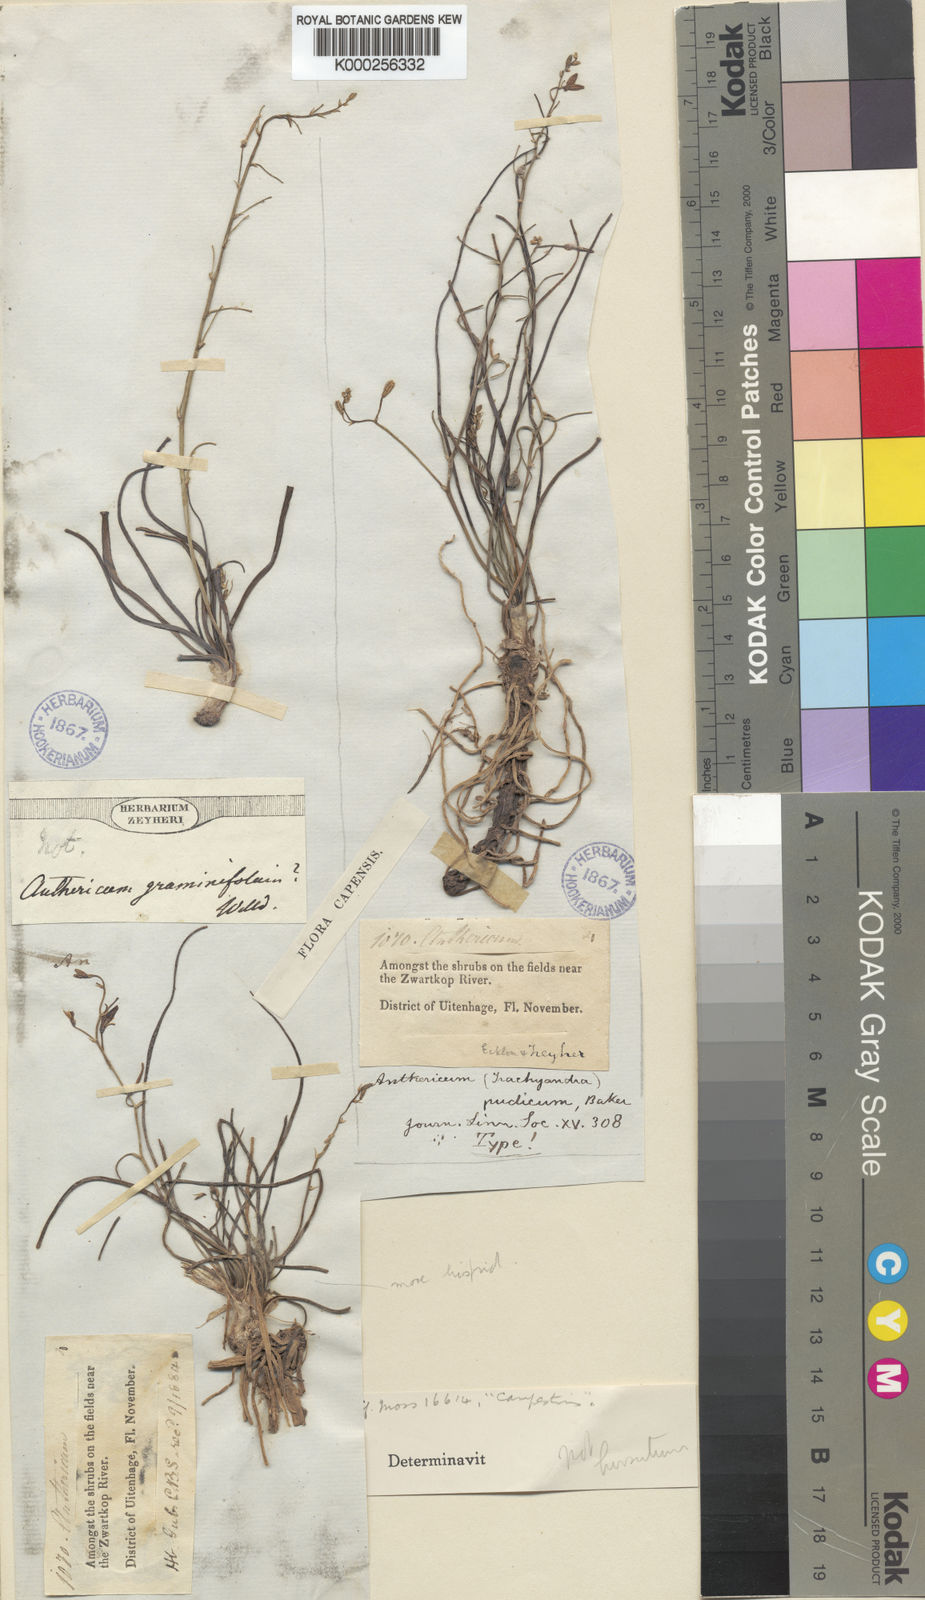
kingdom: Plantae
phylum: Tracheophyta
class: Liliopsida
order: Asparagales
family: Asphodelaceae
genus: Trachyandra
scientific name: Trachyandra affinis
